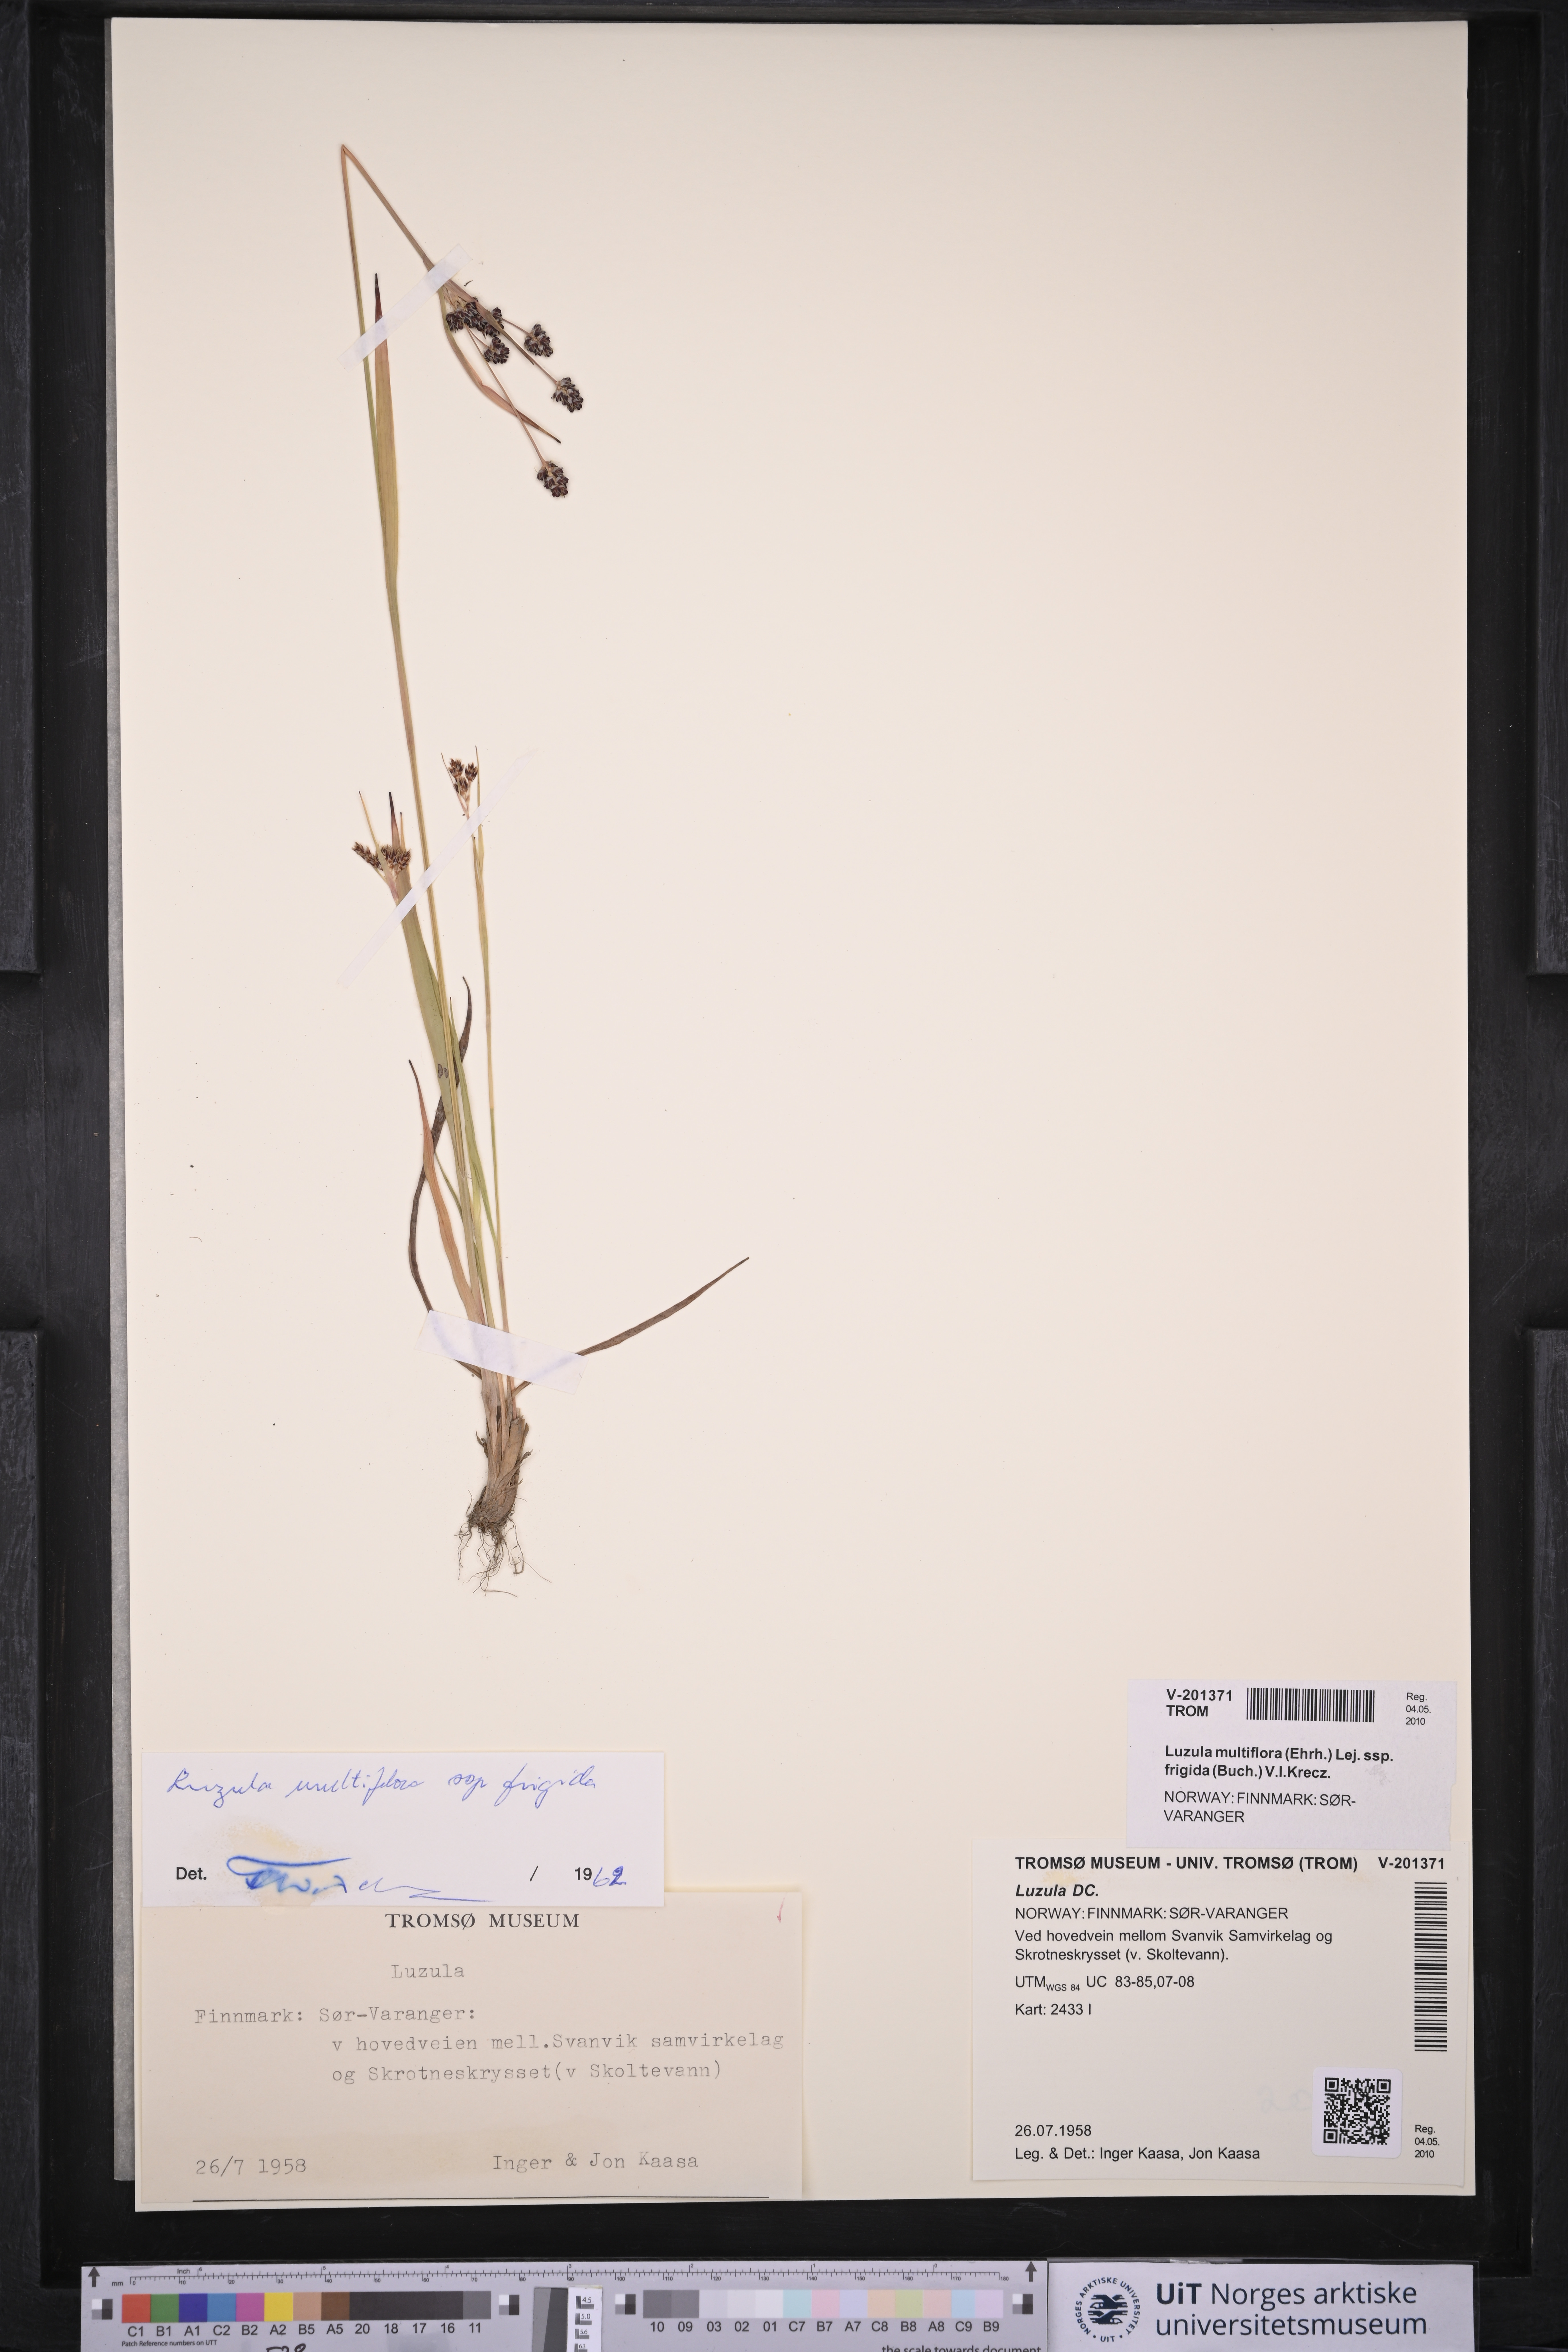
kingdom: Plantae
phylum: Tracheophyta
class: Liliopsida
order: Poales
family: Juncaceae
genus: Luzula
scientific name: Luzula multiflora
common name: Heath wood-rush
